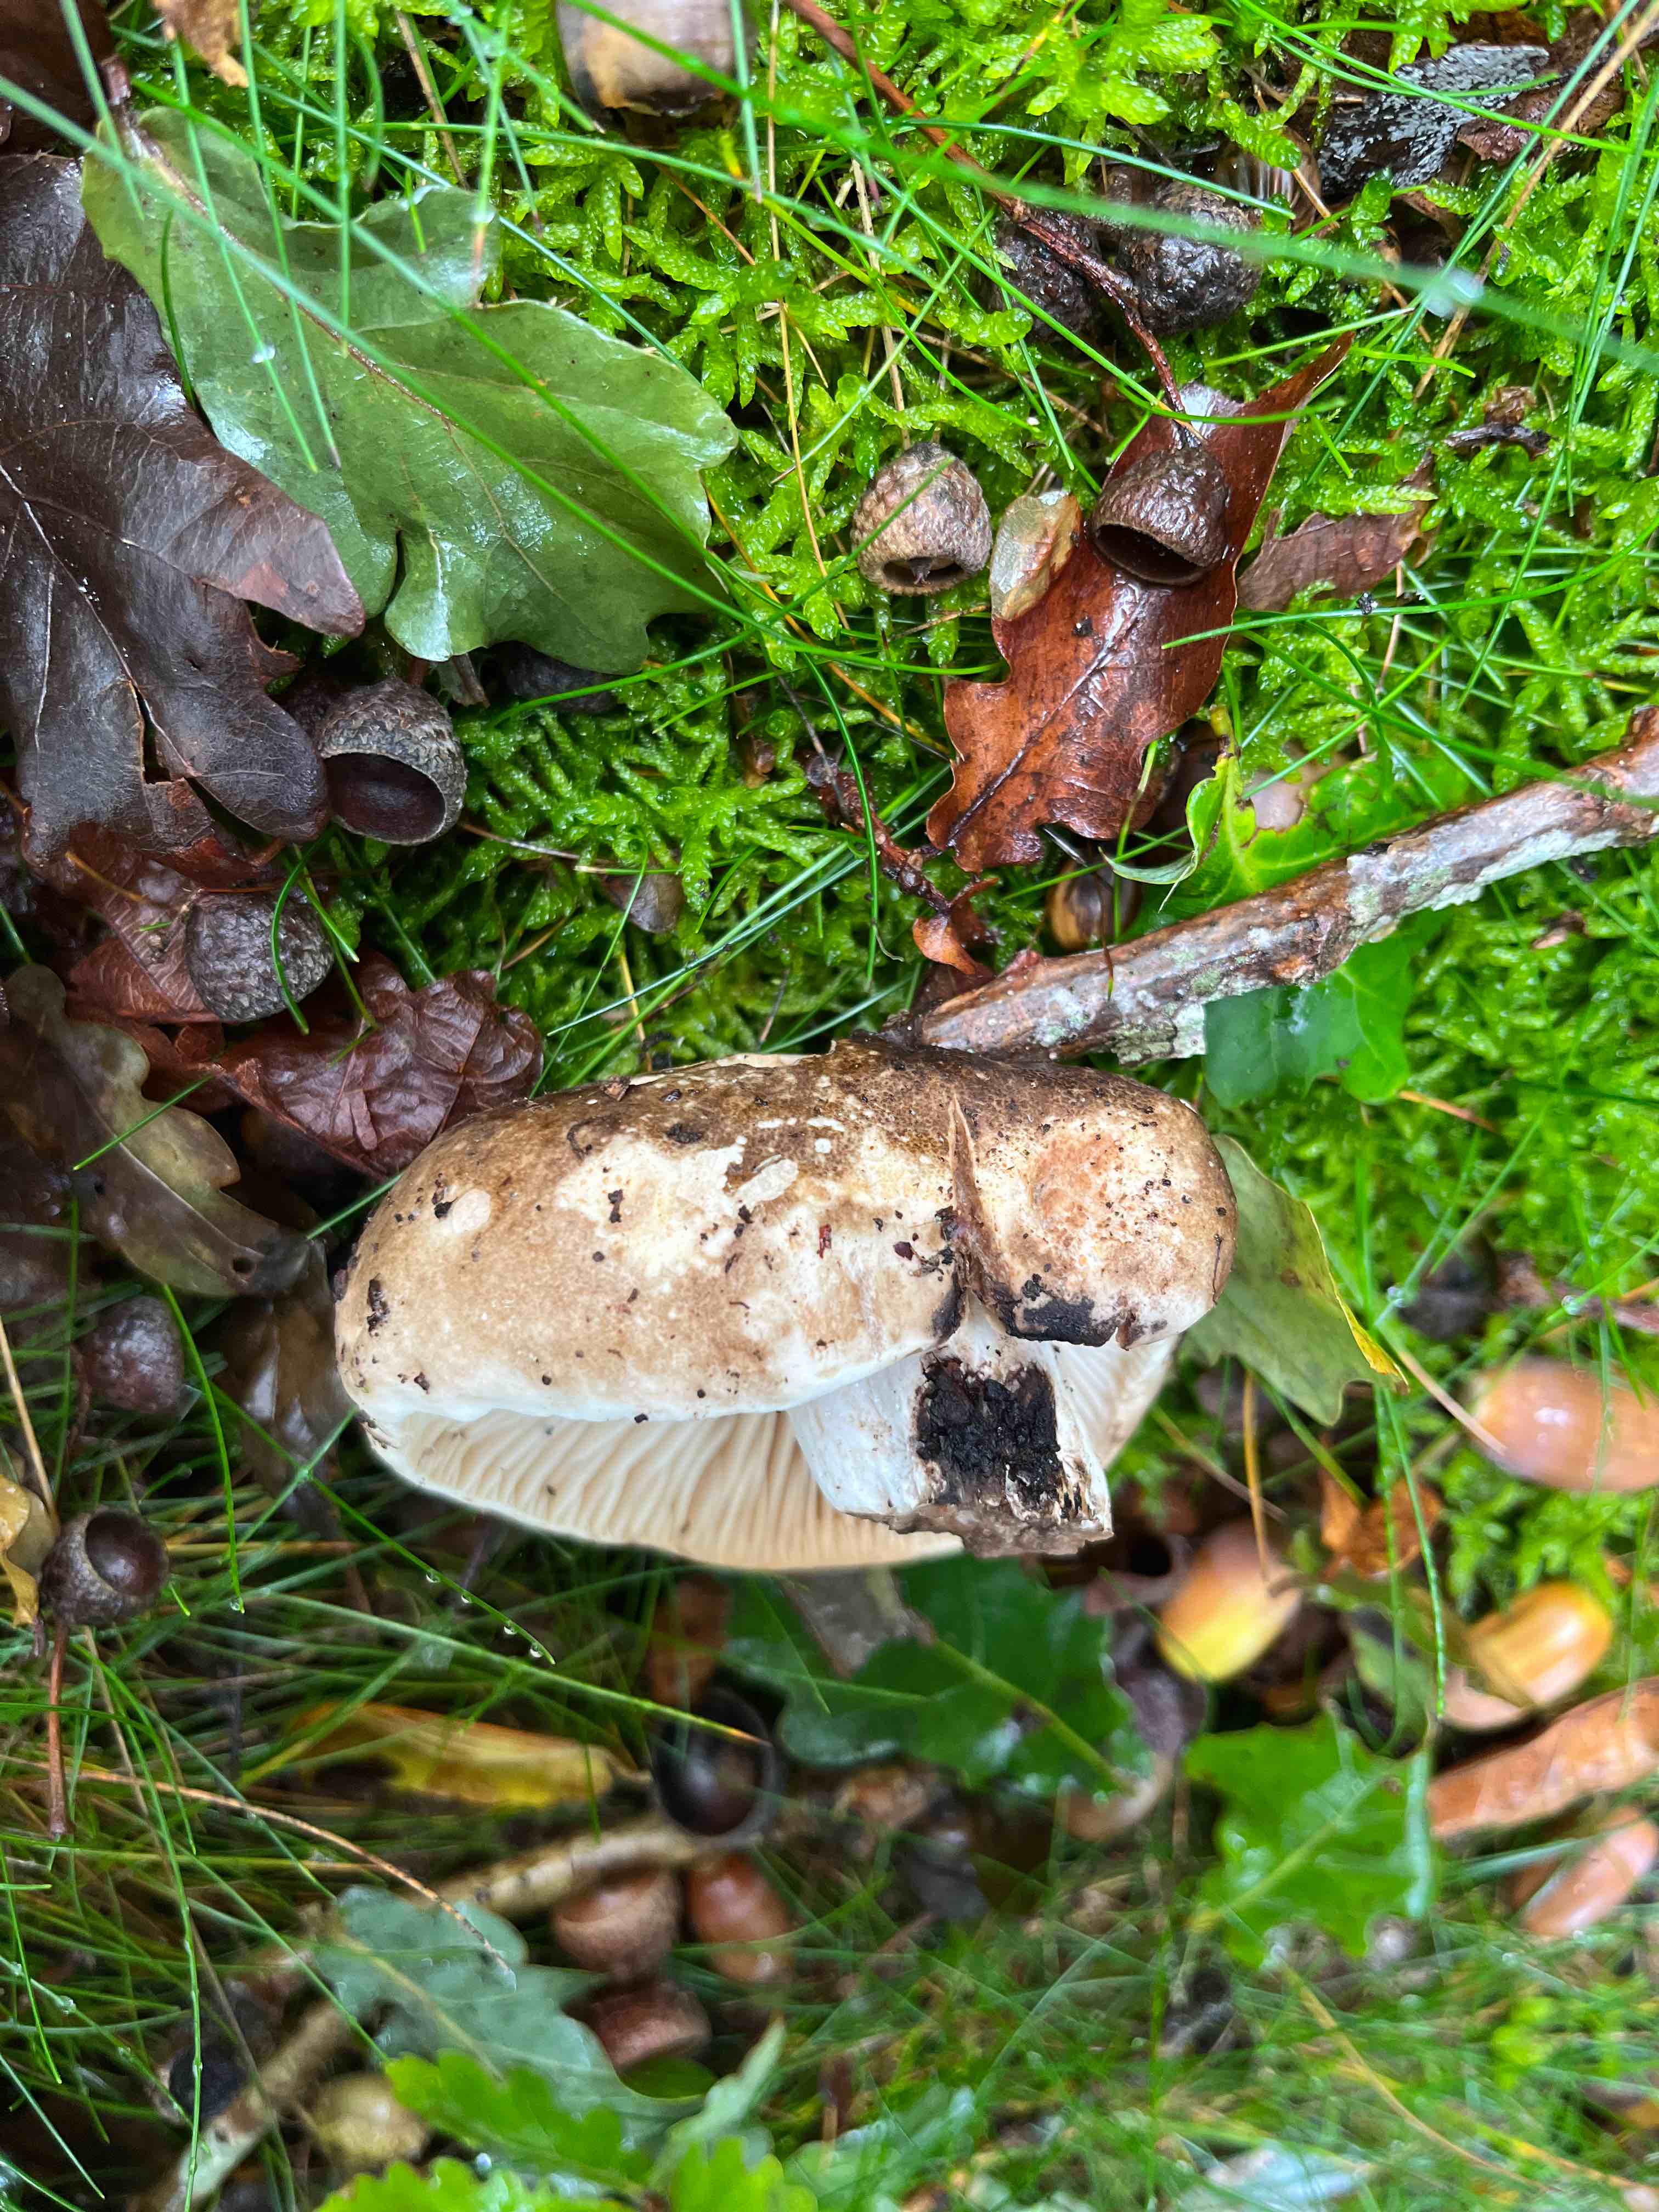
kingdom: Fungi
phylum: Basidiomycota
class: Agaricomycetes
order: Russulales
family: Russulaceae
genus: Russula
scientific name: Russula adusta
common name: sværtende skørhat
